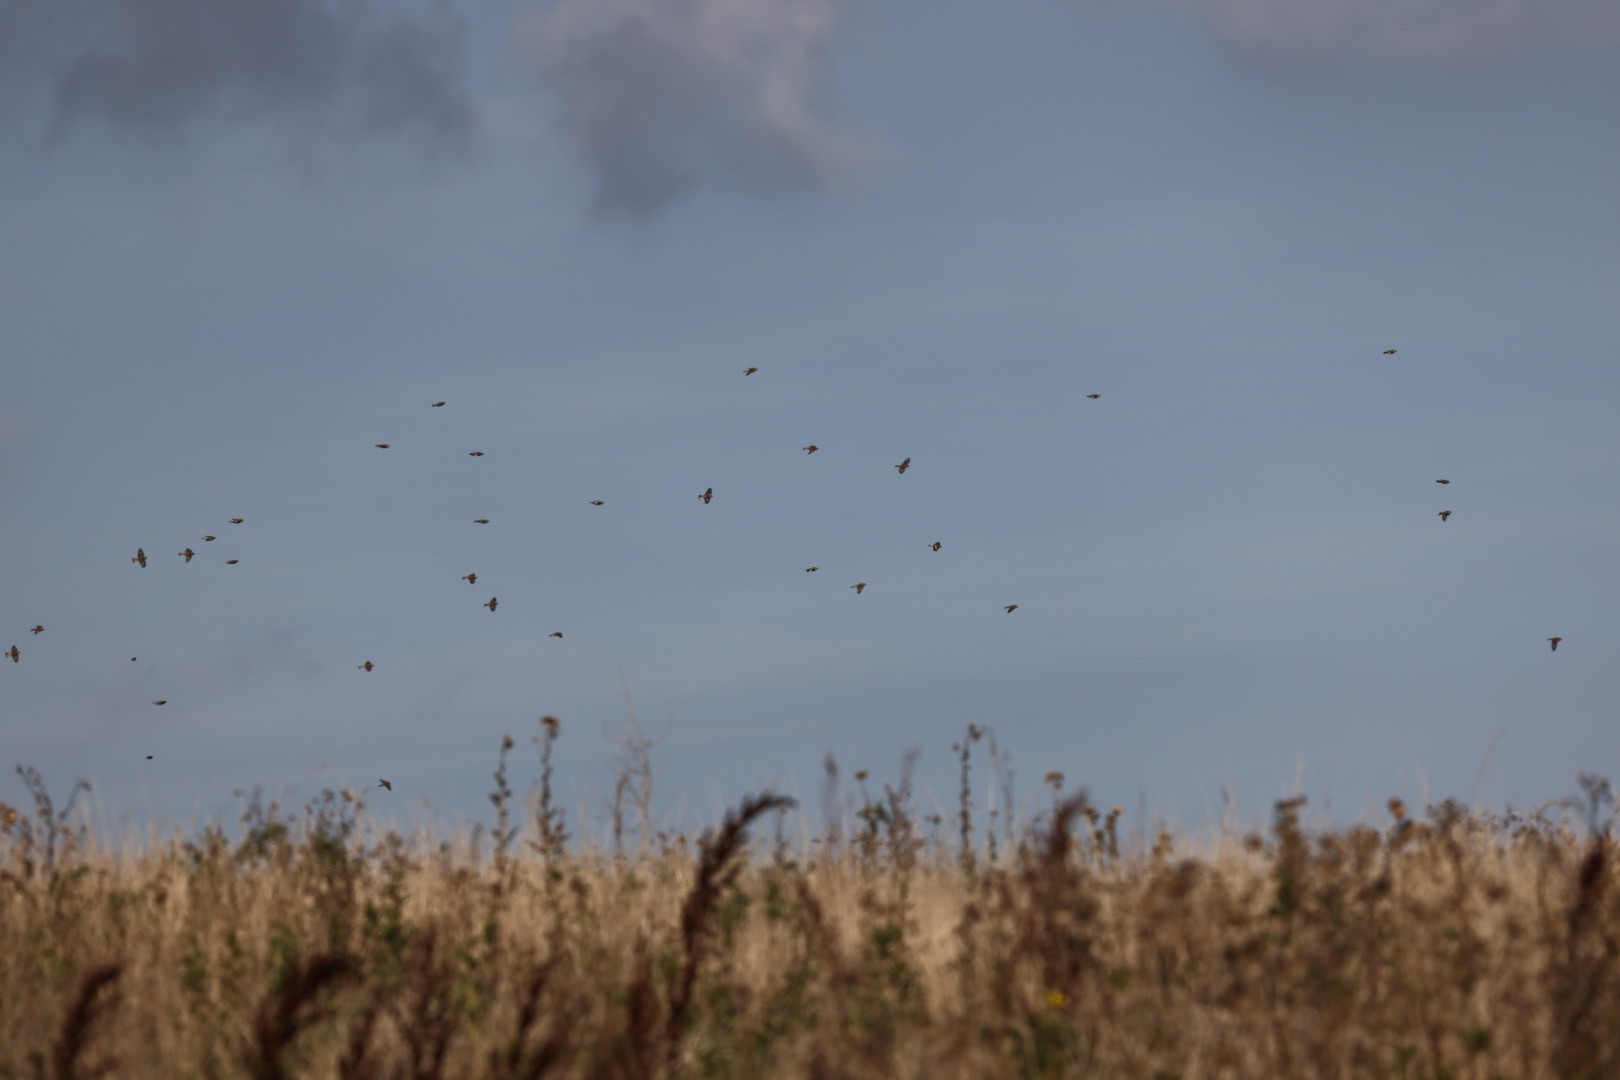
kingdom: Animalia
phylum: Chordata
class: Aves
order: Passeriformes
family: Fringillidae
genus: Carduelis
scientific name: Carduelis carduelis
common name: Stillits
